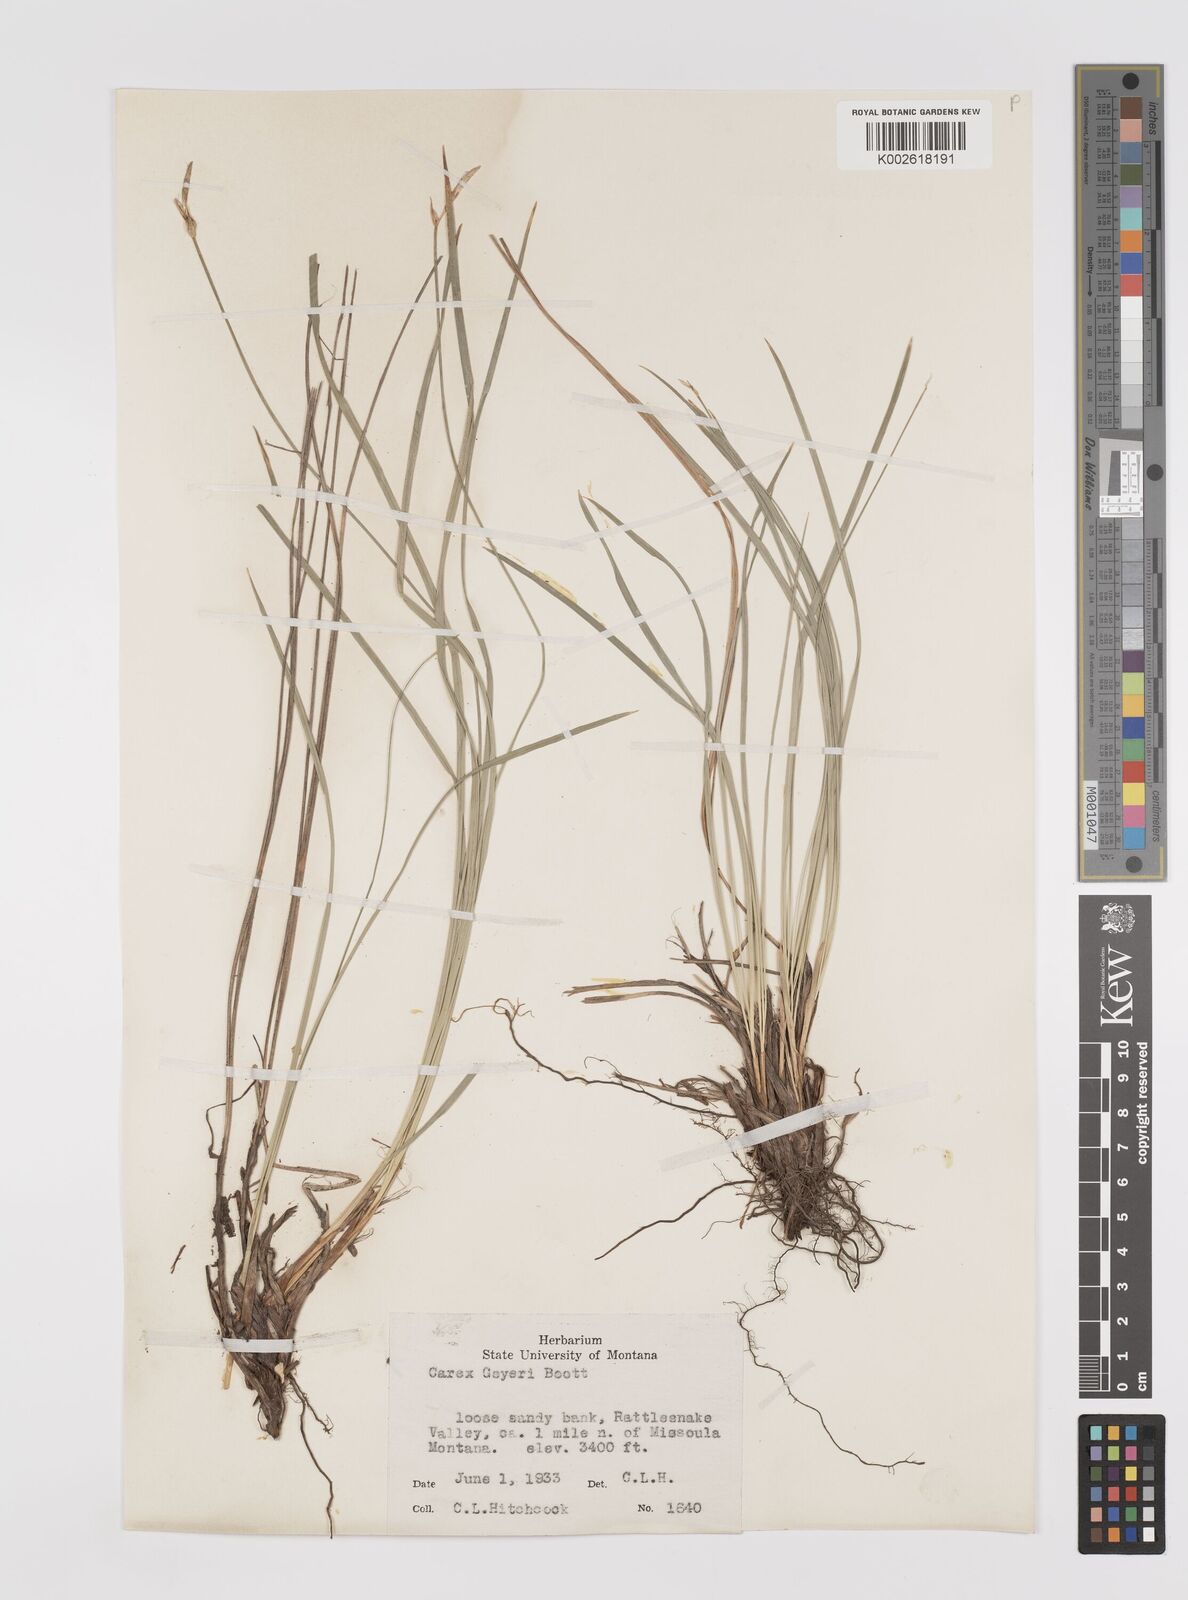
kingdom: Plantae
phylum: Tracheophyta
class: Liliopsida
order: Poales
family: Cyperaceae
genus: Carex
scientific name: Carex geyeri
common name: Elk sedge
